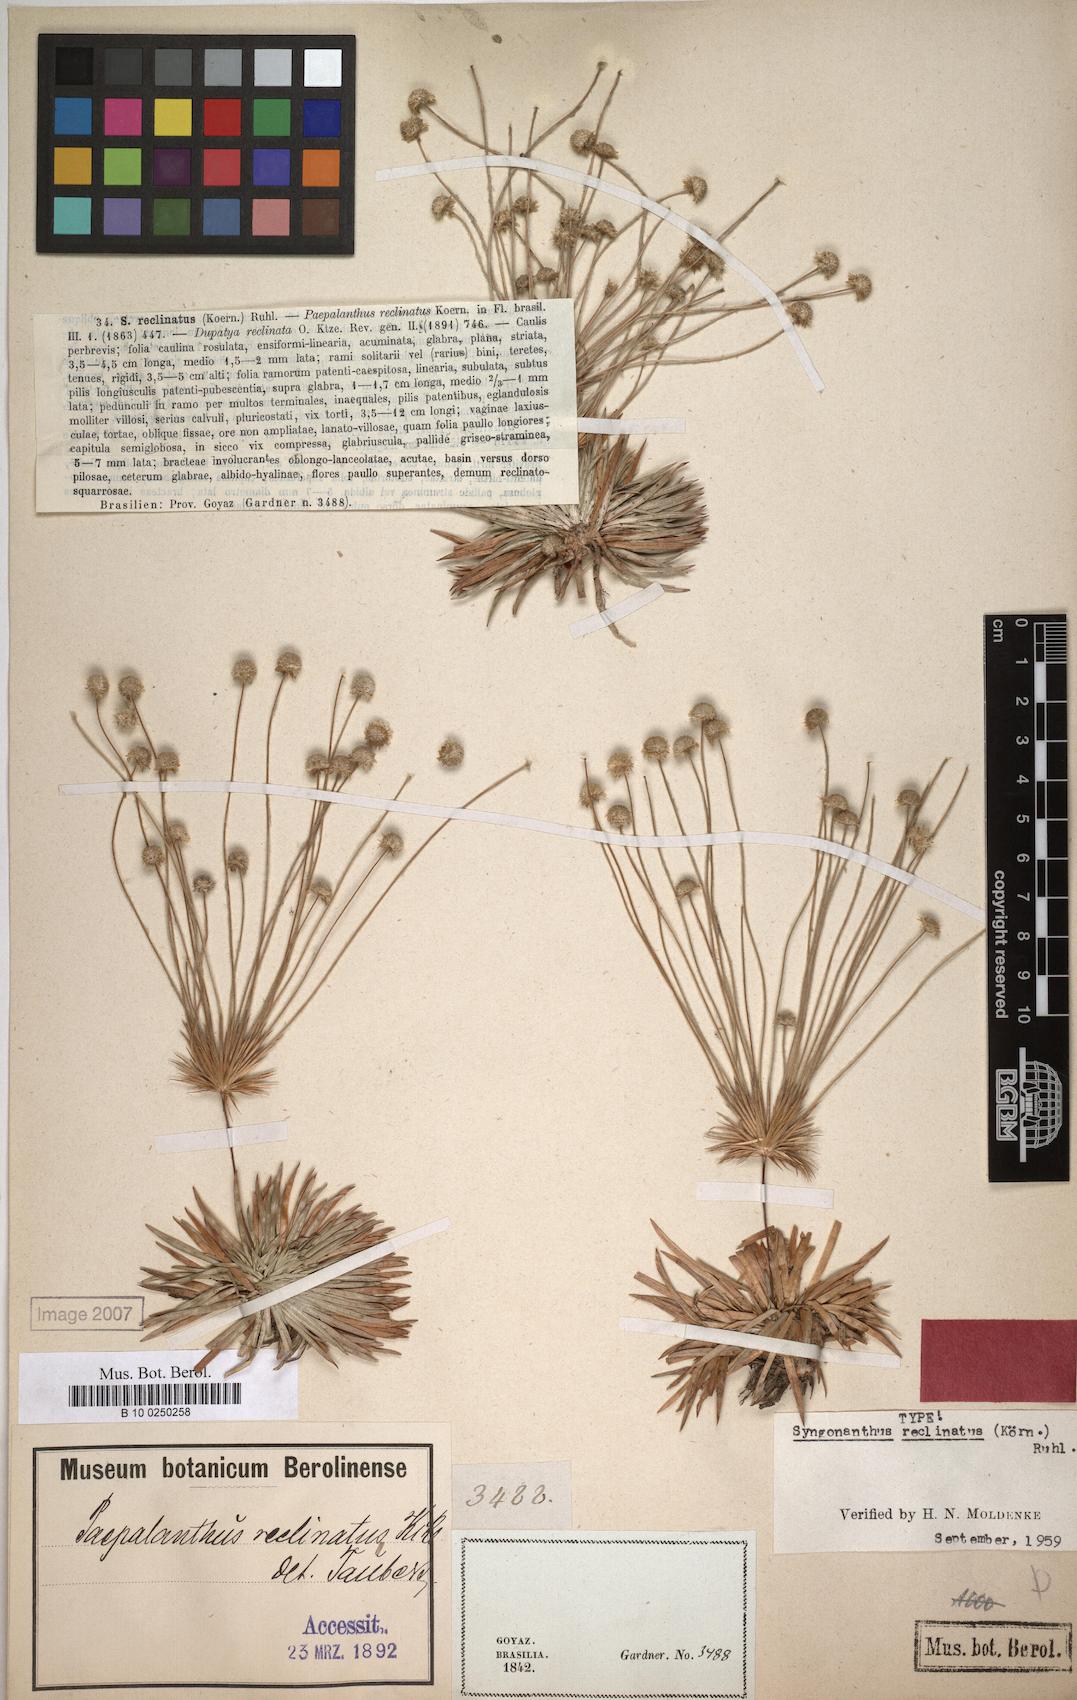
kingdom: Plantae
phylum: Tracheophyta
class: Liliopsida
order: Poales
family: Eriocaulaceae
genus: Syngonanthus
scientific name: Syngonanthus reclinatus
